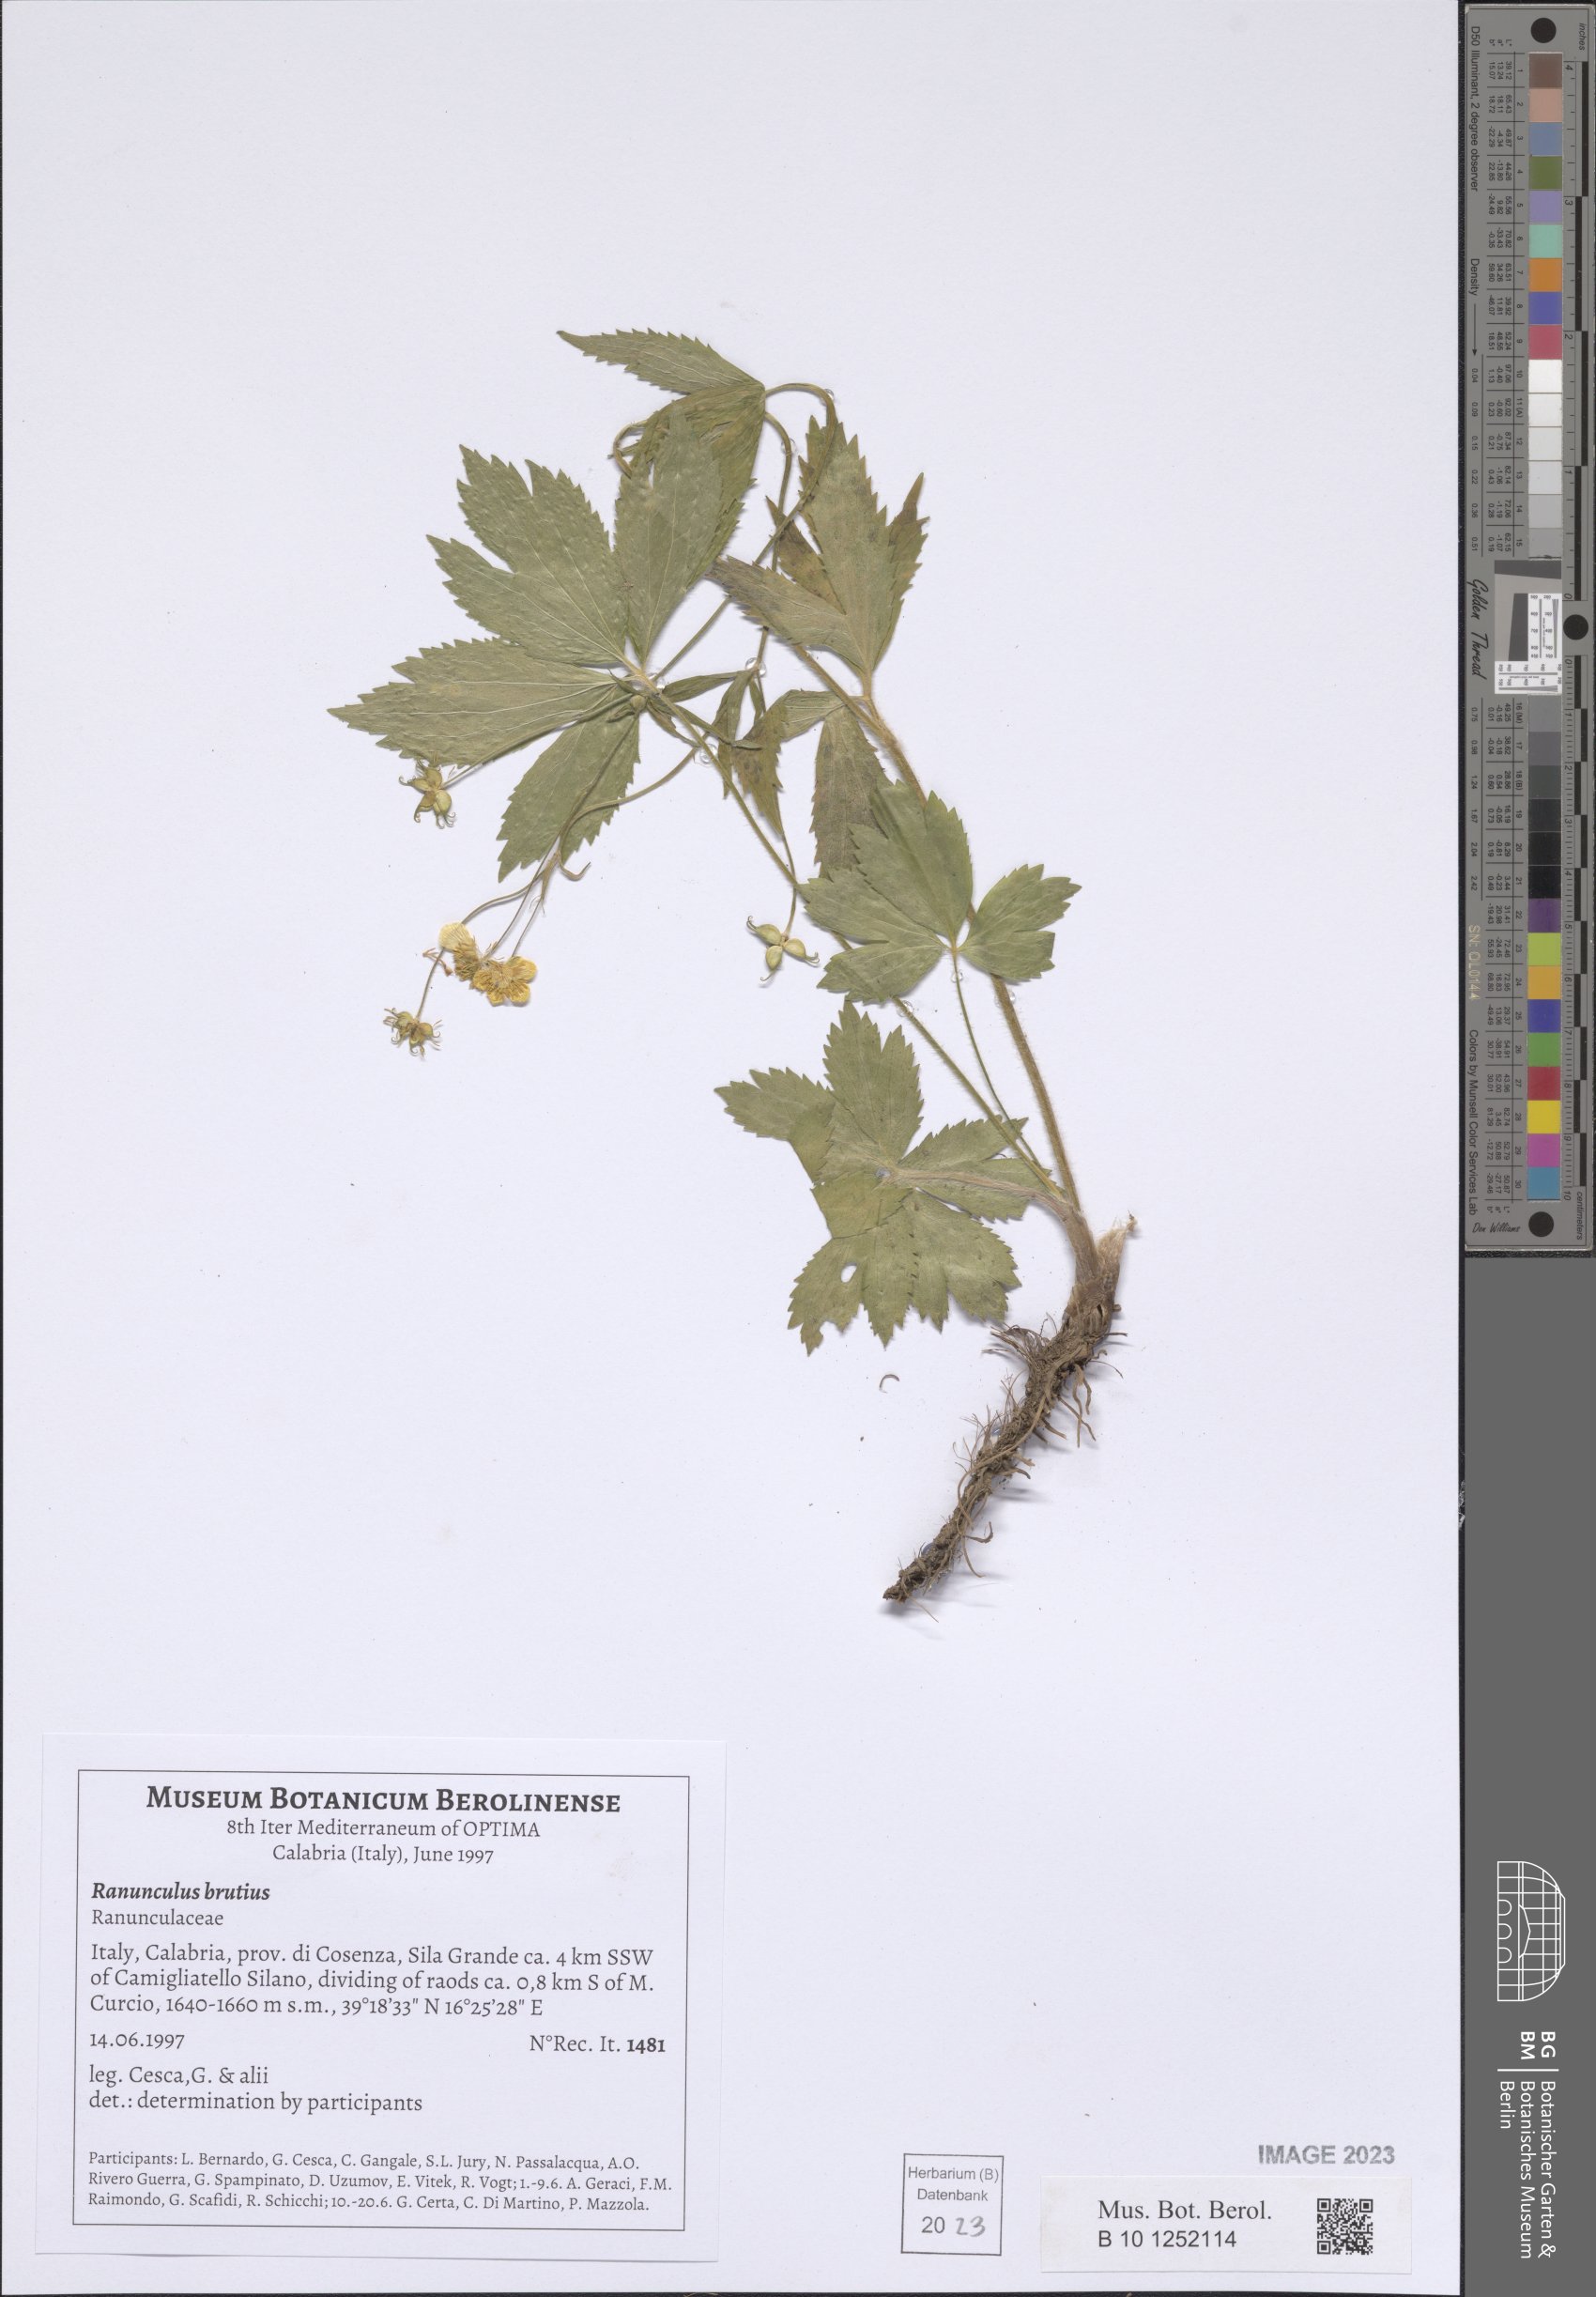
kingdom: Plantae
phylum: Tracheophyta
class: Magnoliopsida
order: Ranunculales
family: Ranunculaceae
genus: Ranunculus
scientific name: Ranunculus brutius
